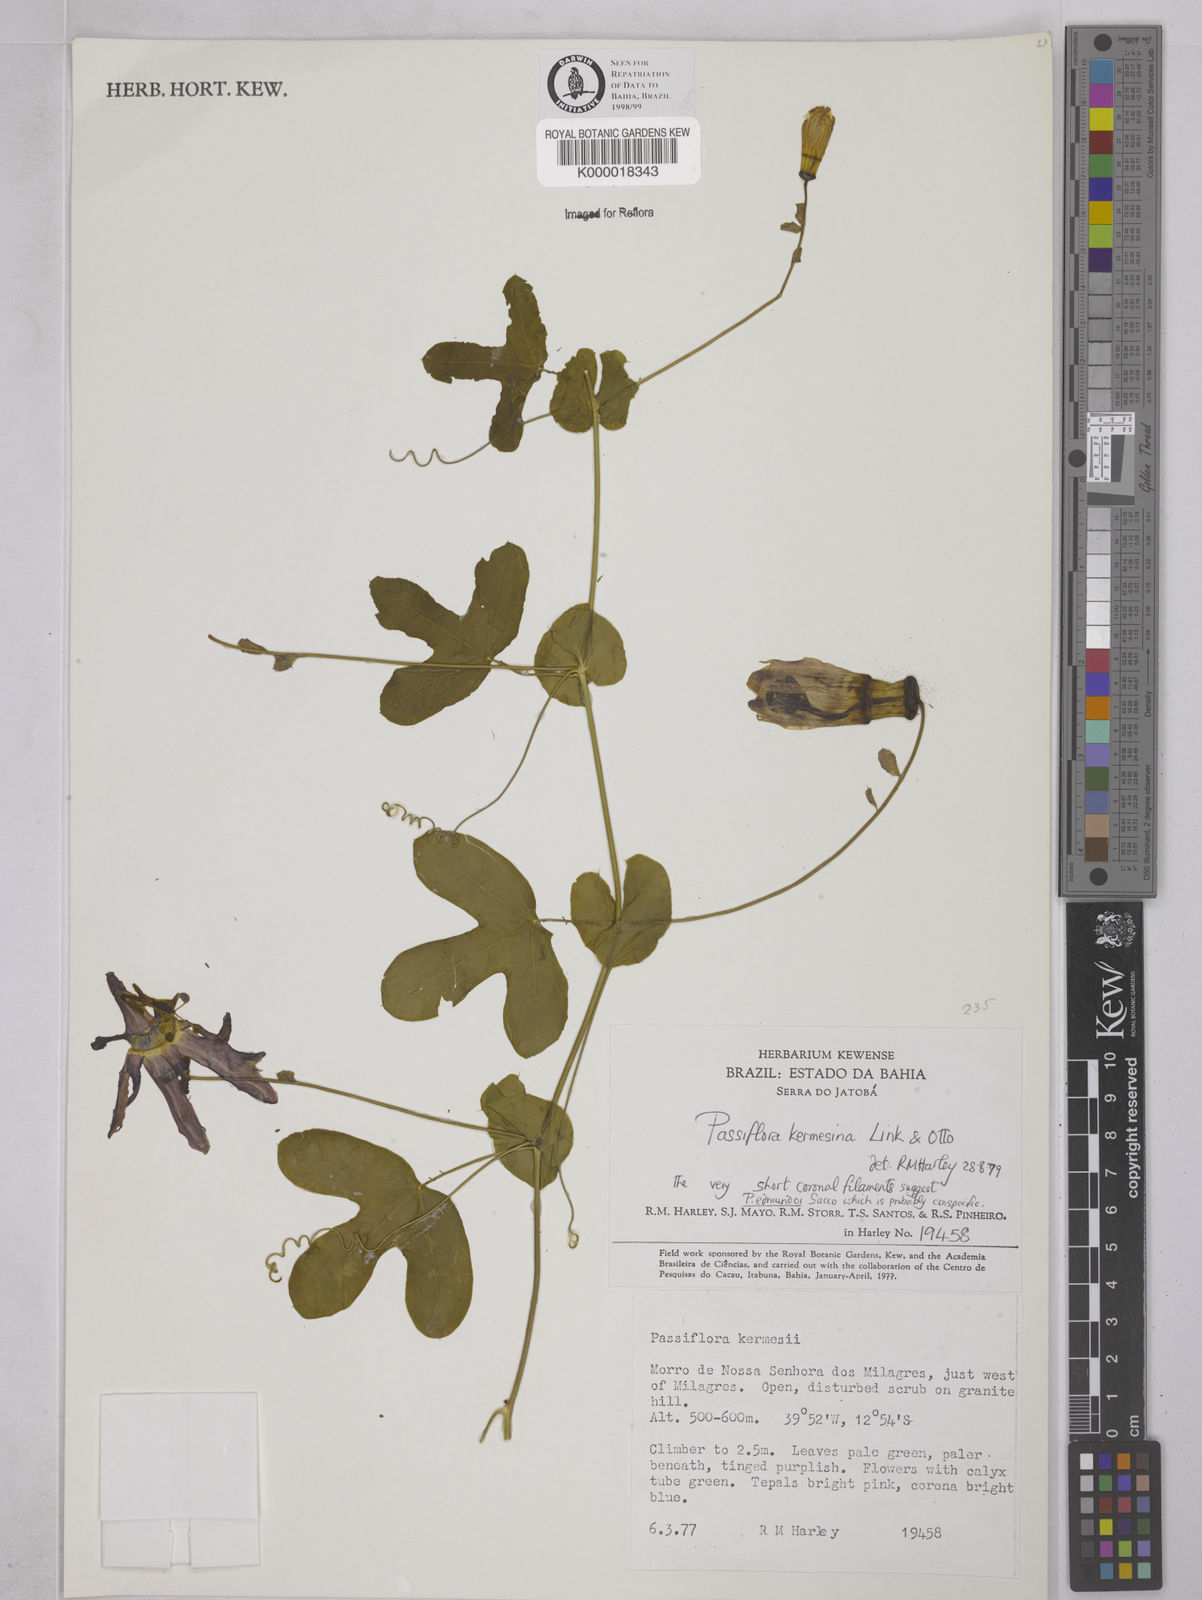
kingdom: Plantae
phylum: Tracheophyta
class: Magnoliopsida
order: Malpighiales
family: Passifloraceae
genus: Passiflora
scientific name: Passiflora kermesina
